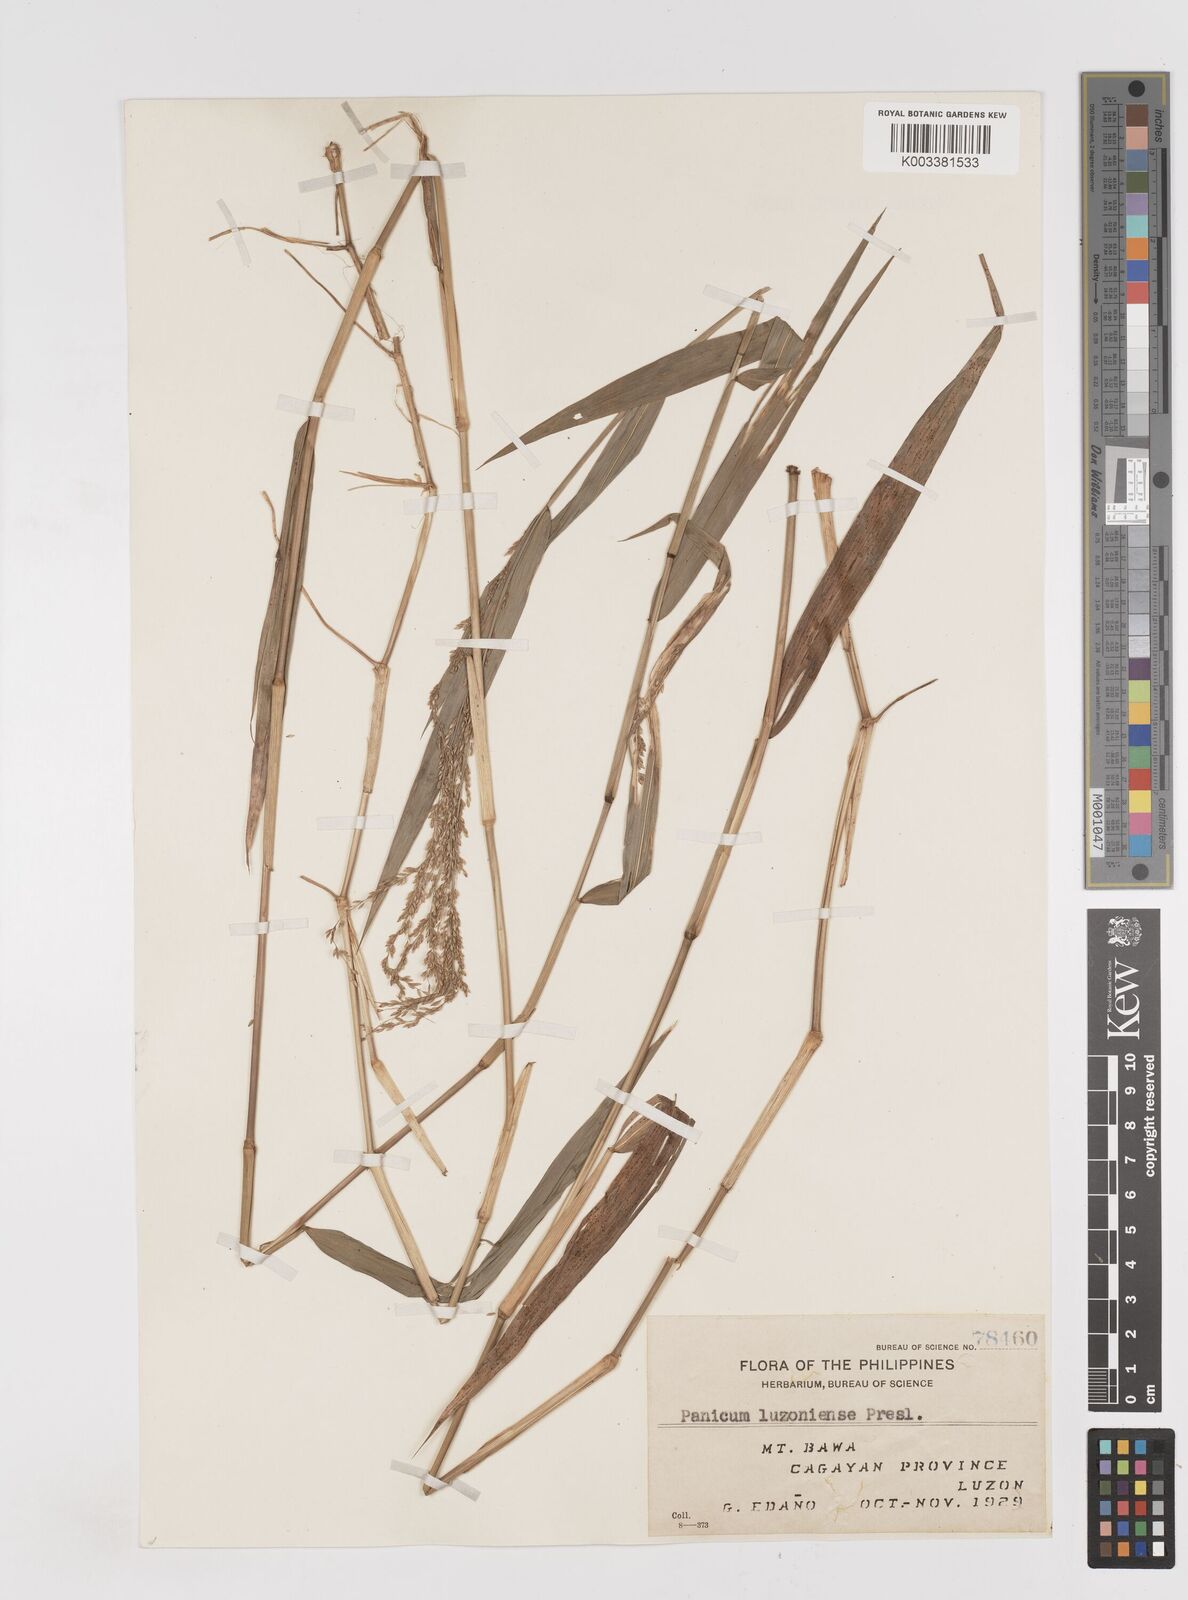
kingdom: Plantae
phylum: Tracheophyta
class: Liliopsida
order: Poales
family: Poaceae
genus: Ottochloa
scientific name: Ottochloa nodosa
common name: Slender-panic grass
